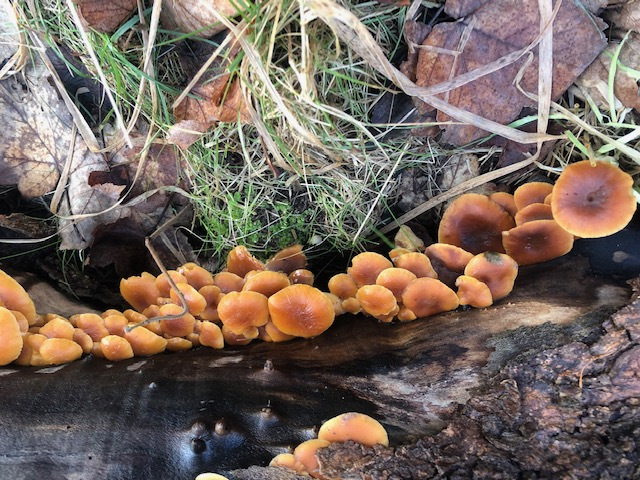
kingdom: Fungi
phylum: Basidiomycota
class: Agaricomycetes
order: Agaricales
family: Physalacriaceae
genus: Flammulina
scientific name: Flammulina
